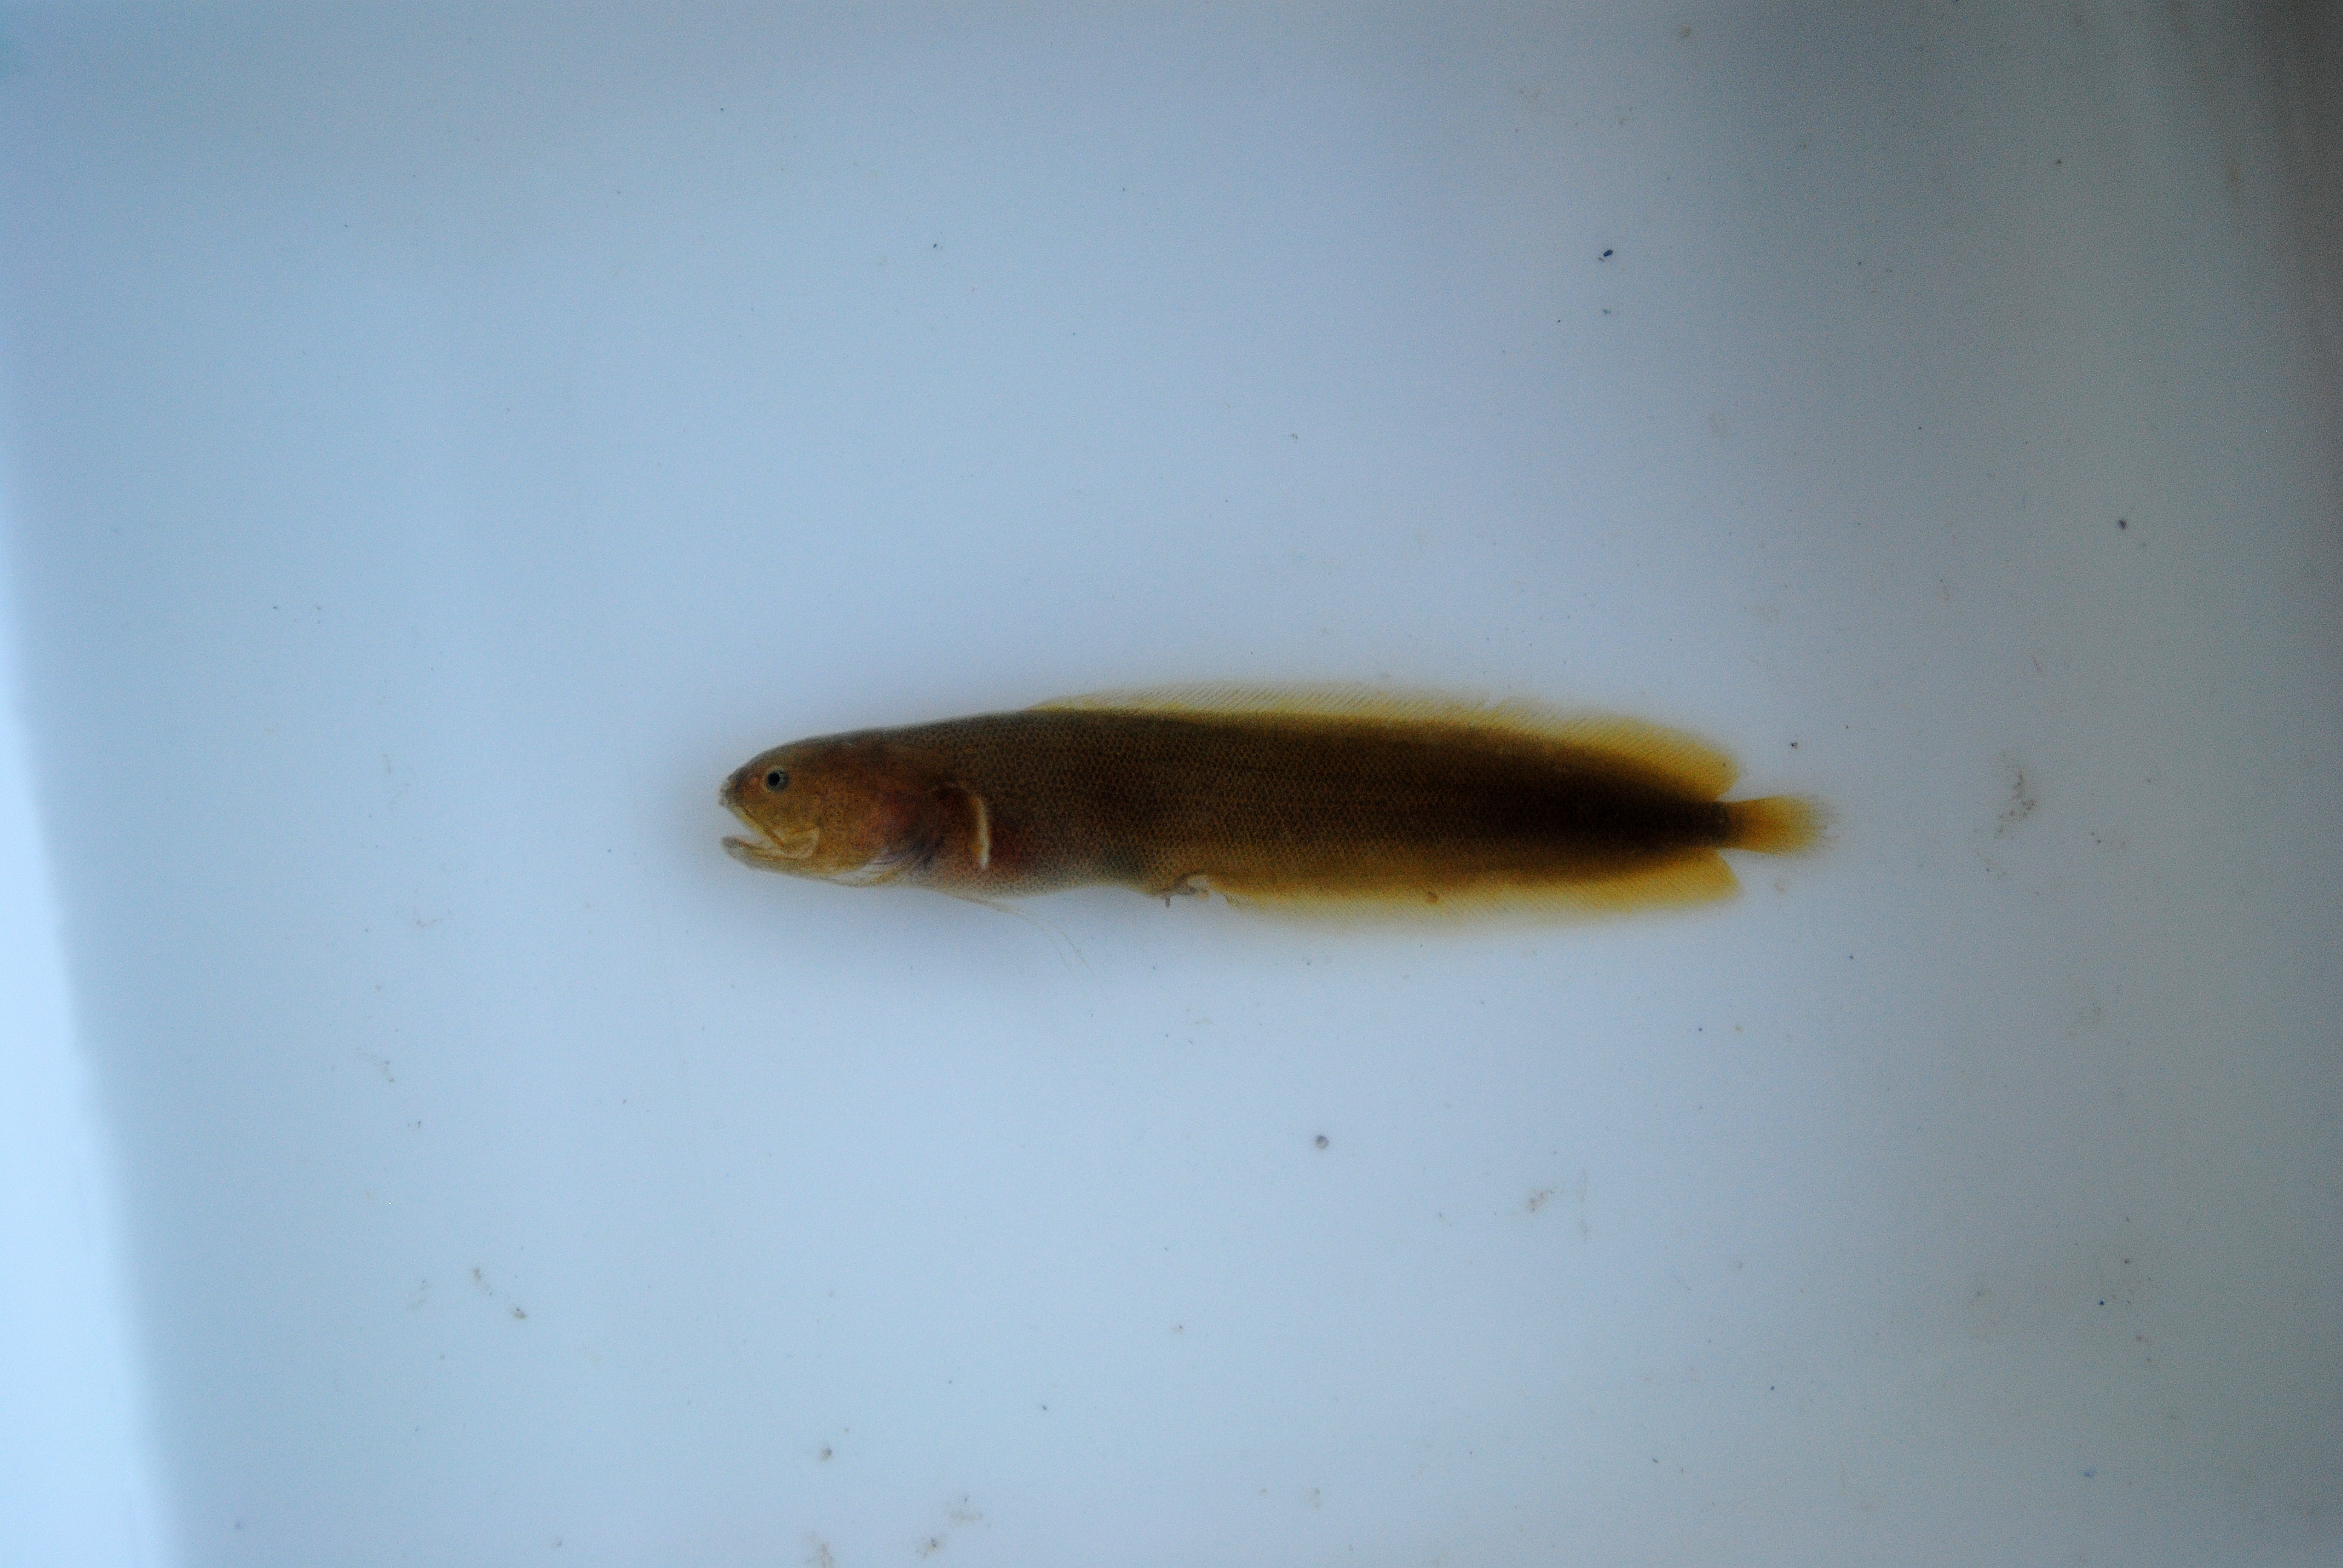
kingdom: Animalia
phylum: Chordata
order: Ophidiiformes
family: Bythitidae
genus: Dinematichthys
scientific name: Dinematichthys iluocoeteoides
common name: Small eye brotula
